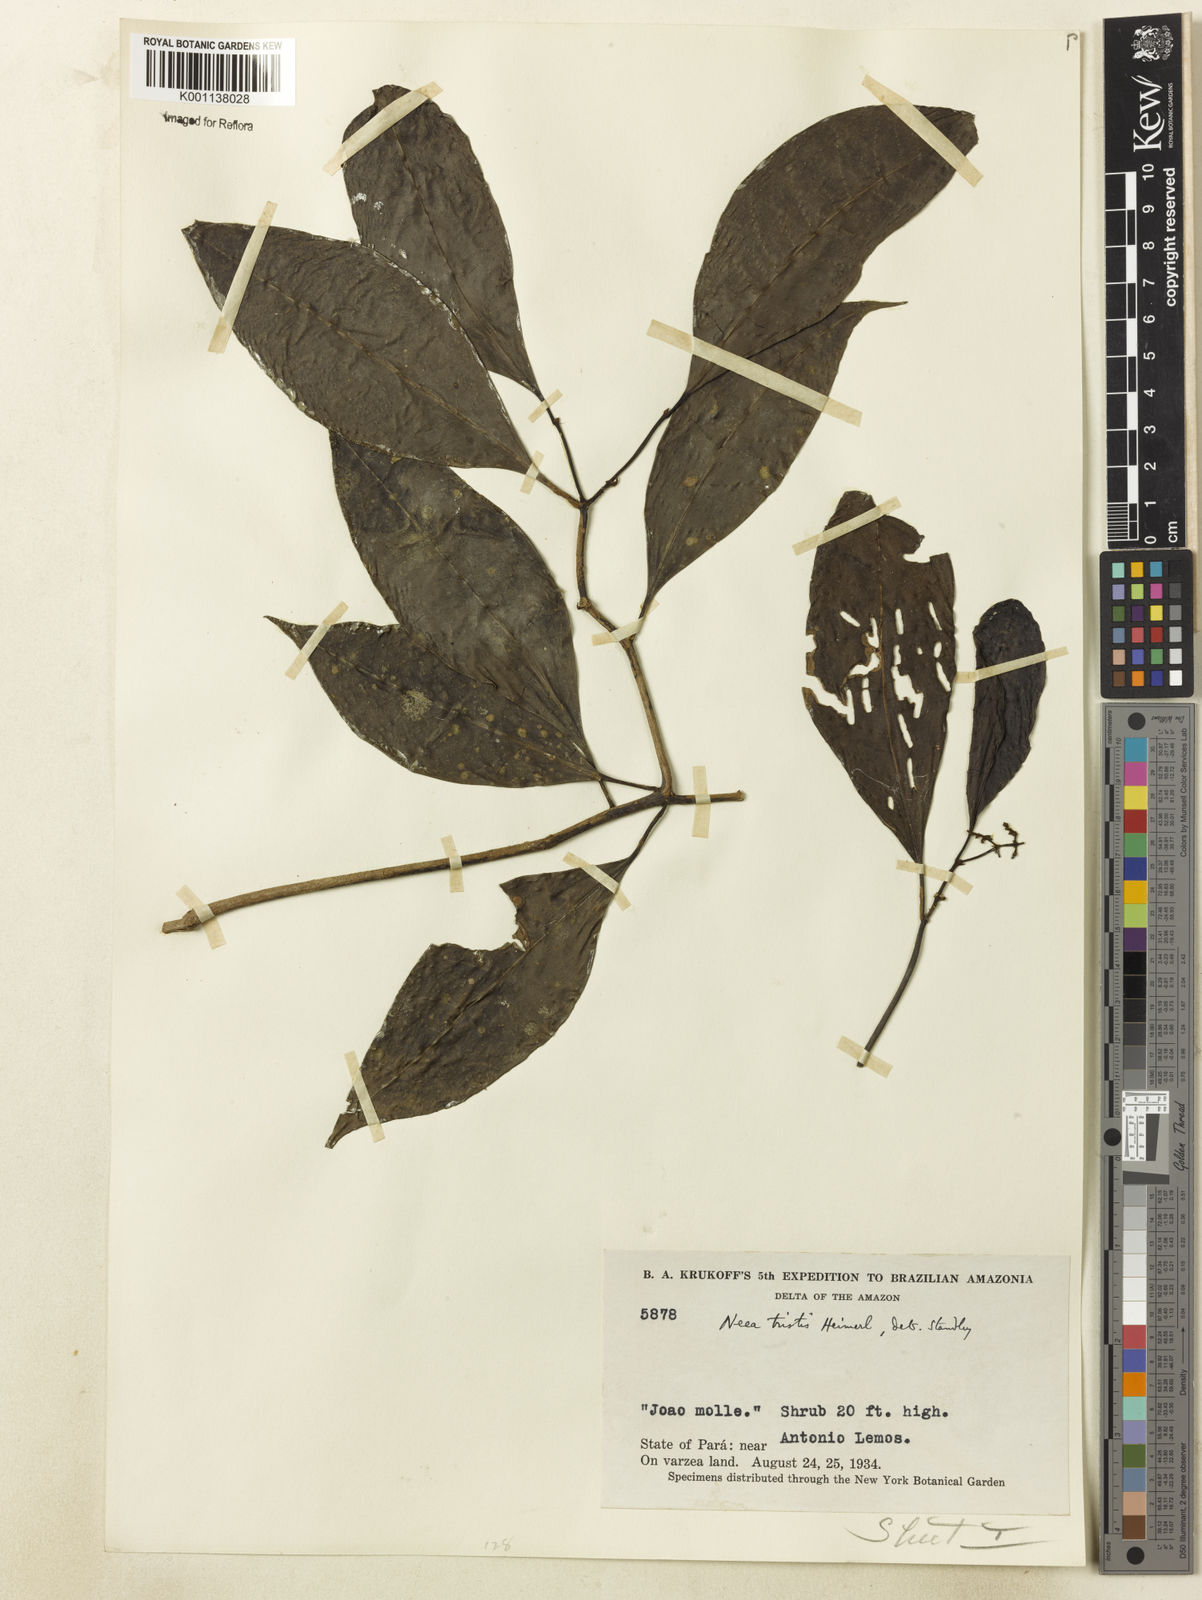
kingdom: Plantae
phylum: Tracheophyta
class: Magnoliopsida
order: Caryophyllales
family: Nyctaginaceae
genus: Neea
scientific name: Neea tristis
